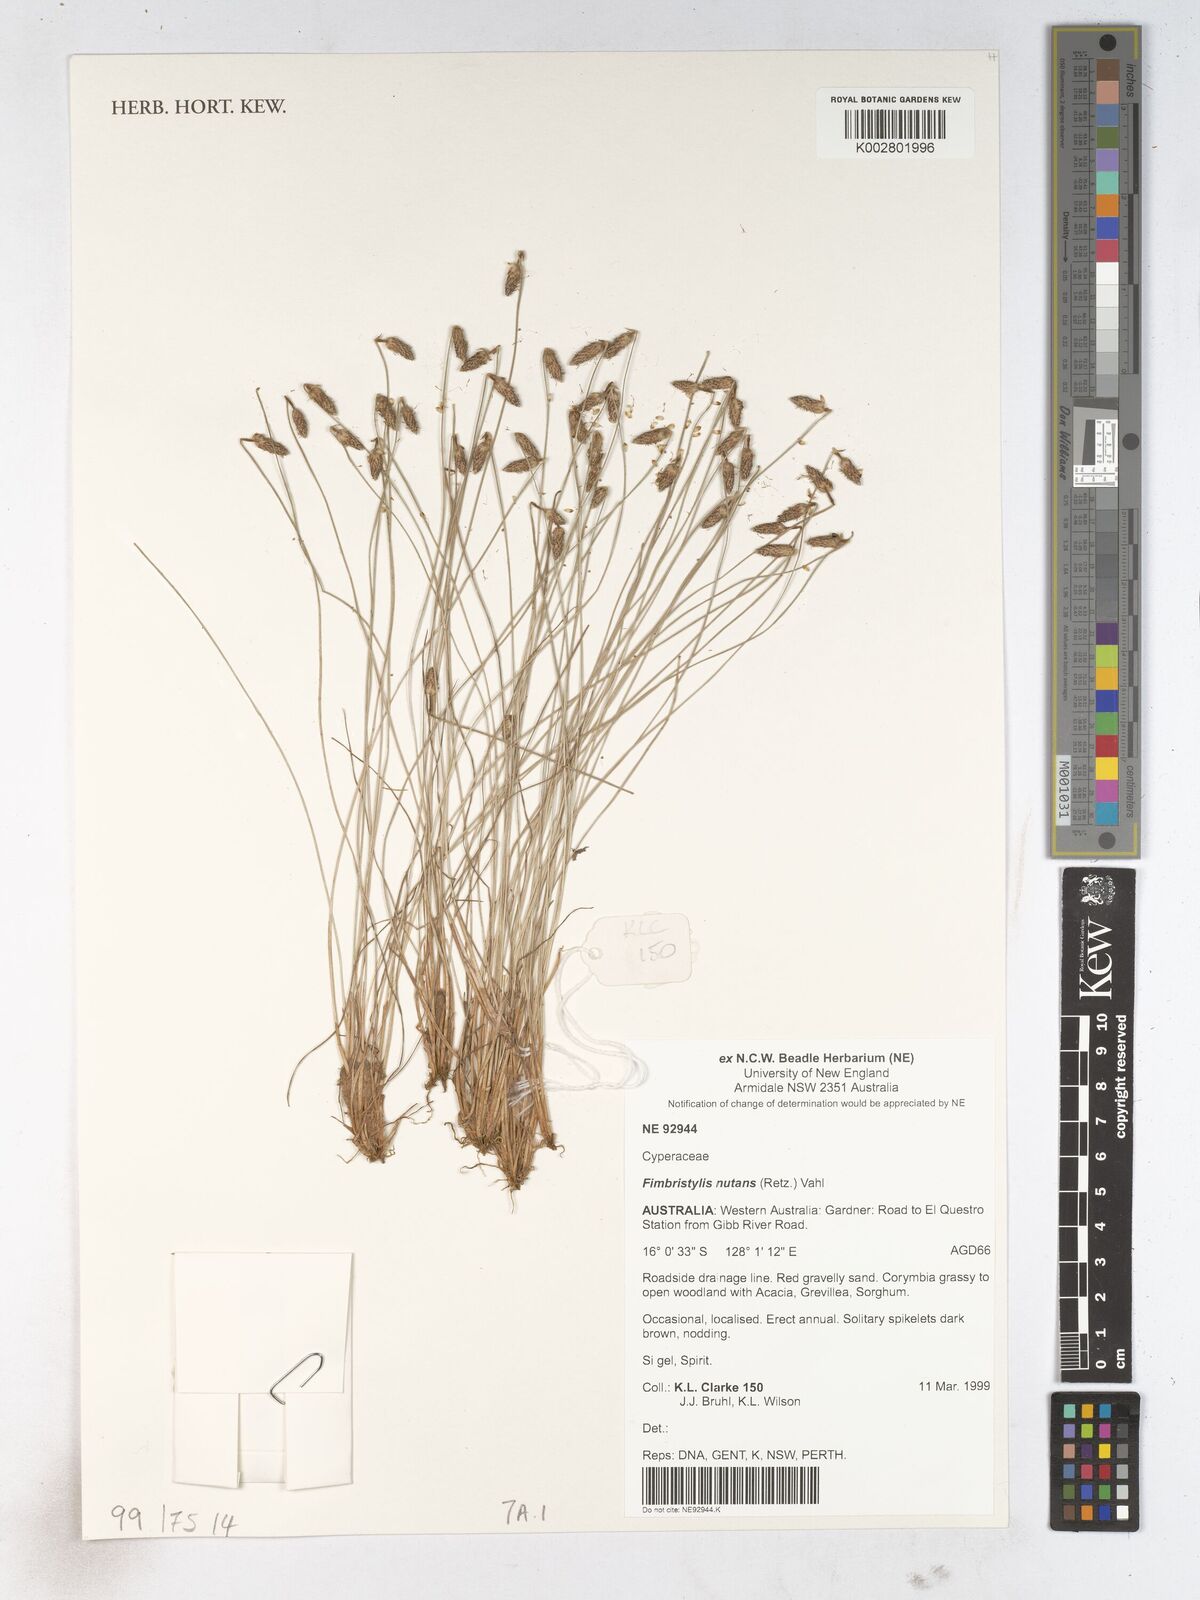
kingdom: Plantae
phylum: Tracheophyta
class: Liliopsida
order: Poales
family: Cyperaceae
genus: Fimbristylis
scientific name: Fimbristylis nutans
